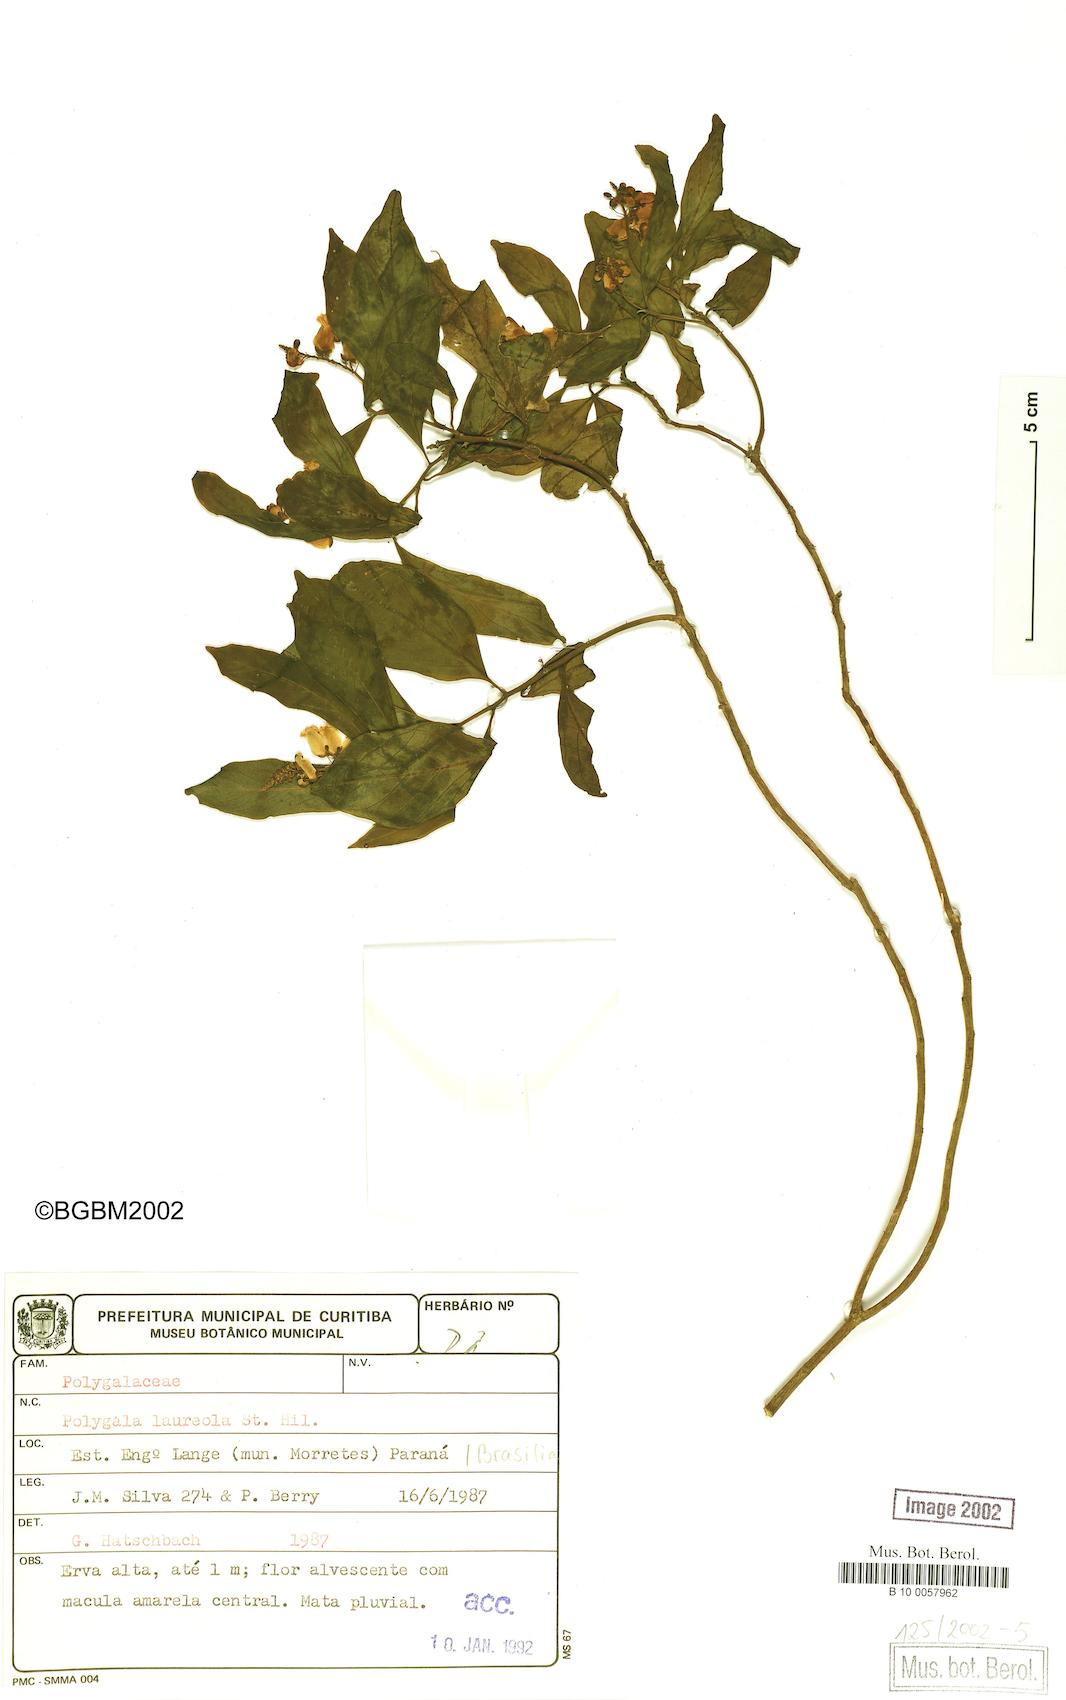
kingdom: Plantae
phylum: Tracheophyta
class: Magnoliopsida
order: Fabales
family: Polygalaceae
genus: Caamembeca
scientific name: Caamembeca salicifolia
